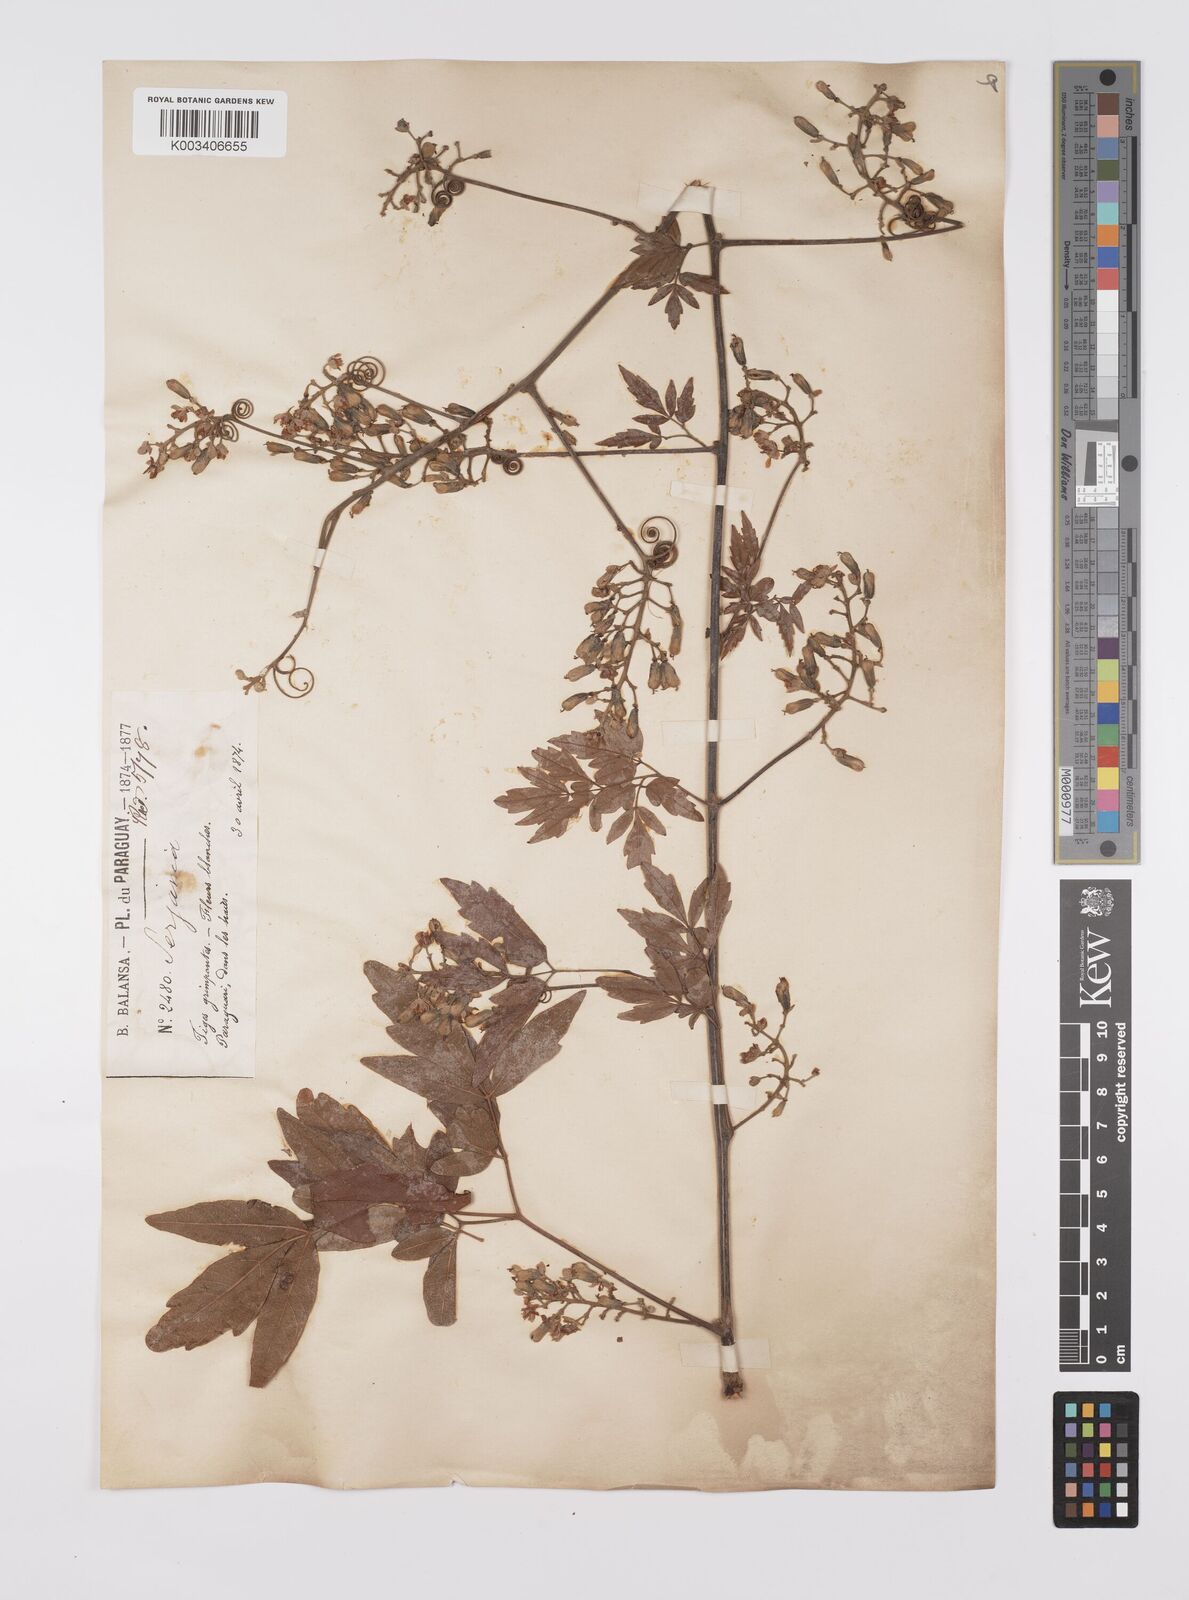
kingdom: Plantae
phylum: Tracheophyta
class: Magnoliopsida
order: Sapindales
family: Sapindaceae
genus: Serjania
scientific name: Serjania perulacea
